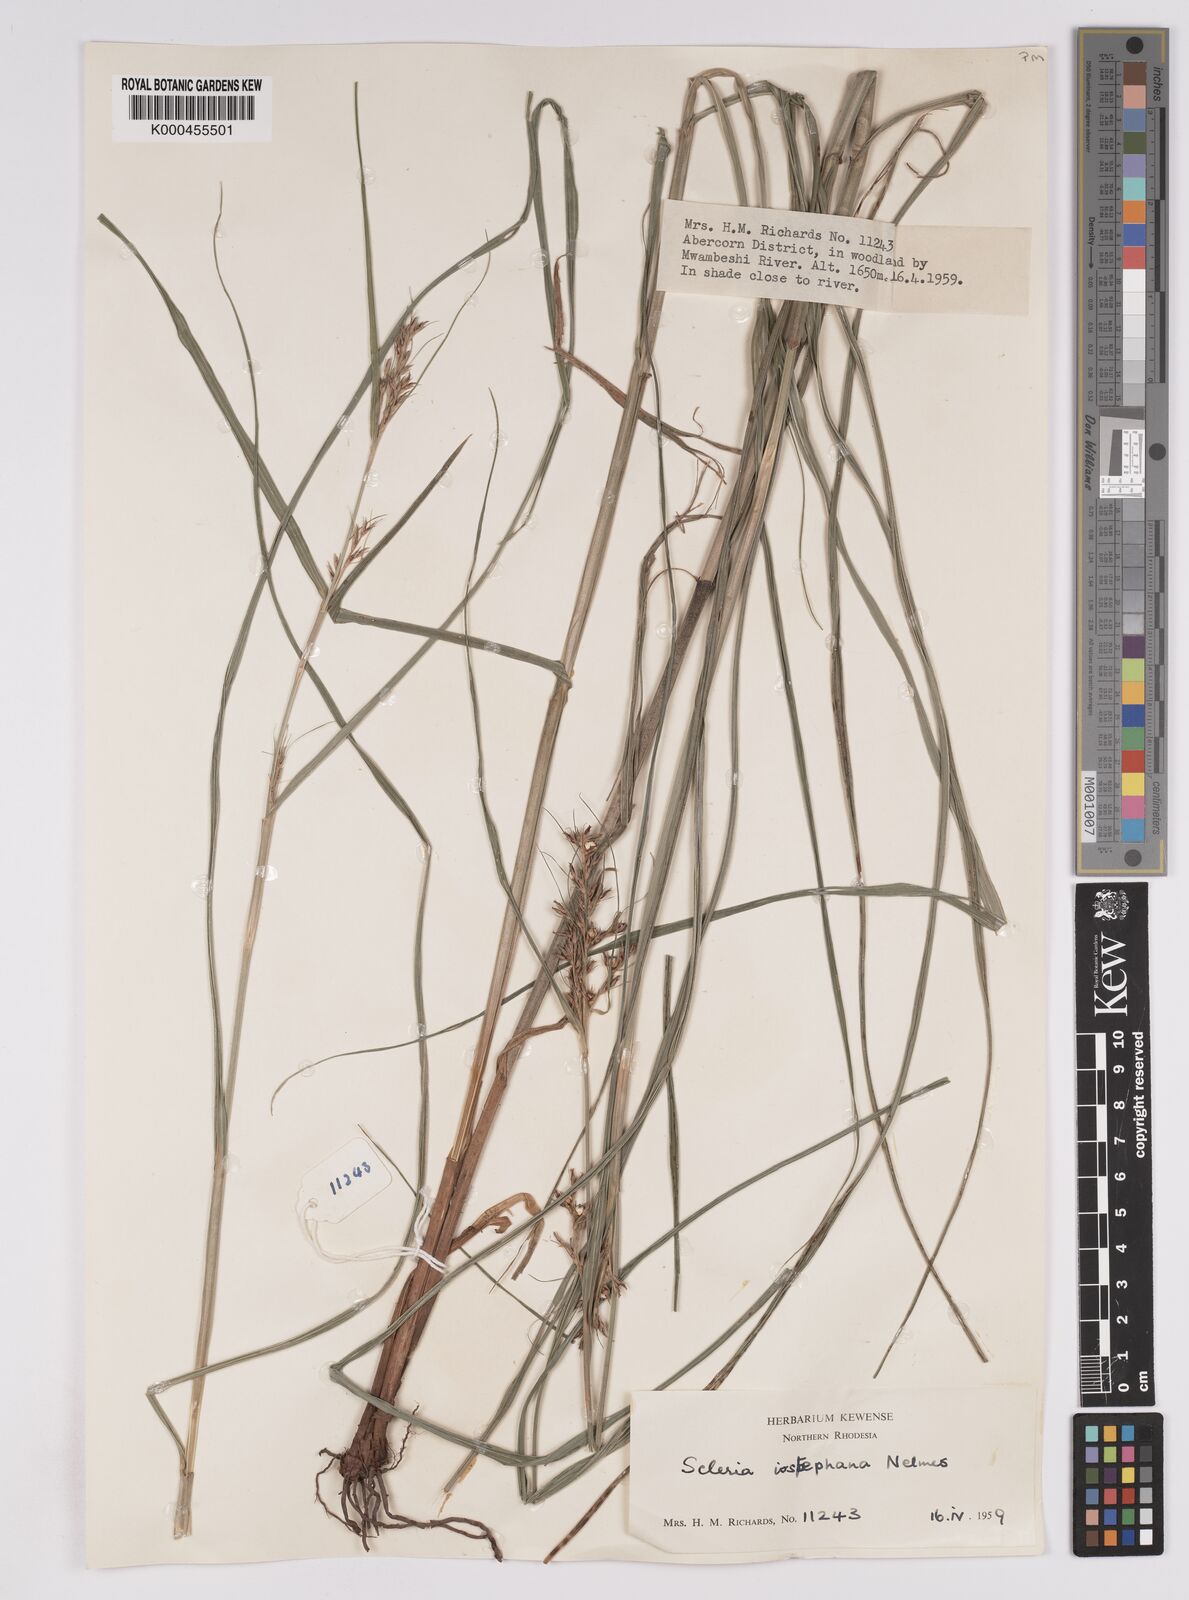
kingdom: Plantae
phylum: Tracheophyta
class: Liliopsida
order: Poales
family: Cyperaceae
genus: Scleria
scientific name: Scleria iostephana
